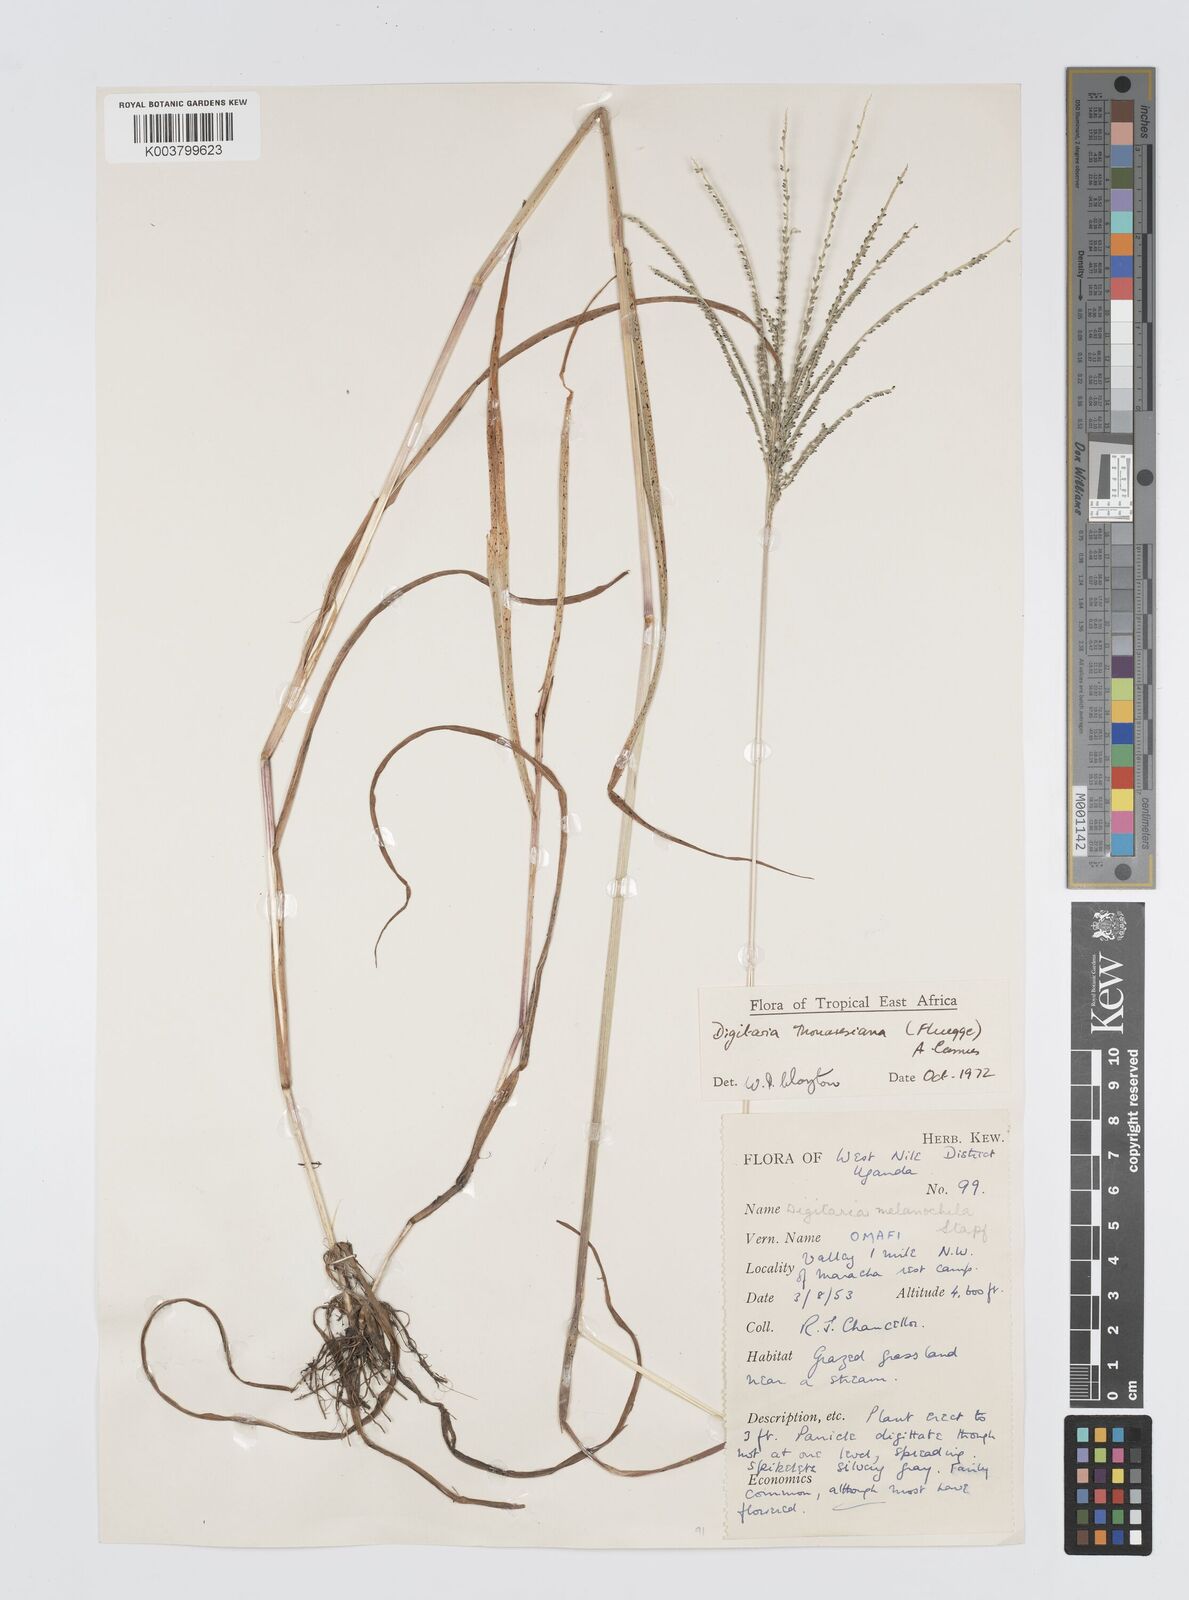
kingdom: Plantae
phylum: Tracheophyta
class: Liliopsida
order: Poales
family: Poaceae
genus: Digitaria
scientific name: Digitaria thouarsiana
